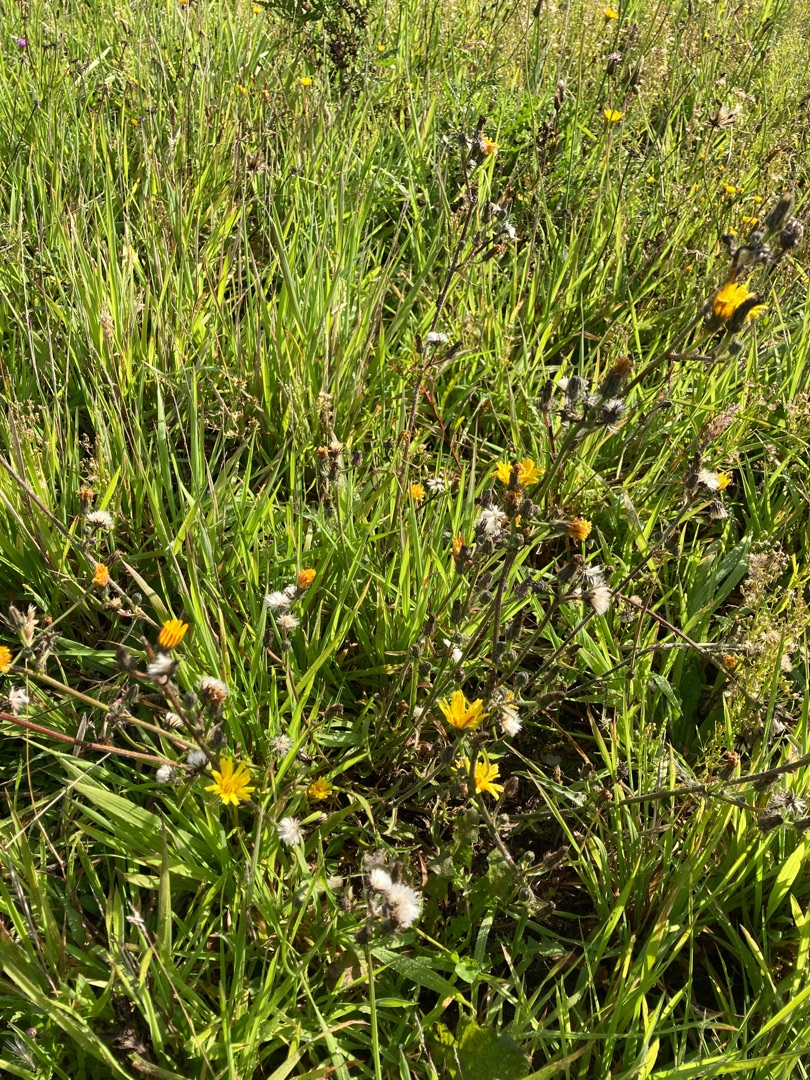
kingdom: Plantae
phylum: Tracheophyta
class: Magnoliopsida
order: Asterales
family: Asteraceae
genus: Picris
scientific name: Picris hieracioides
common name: Ru bittermælk
